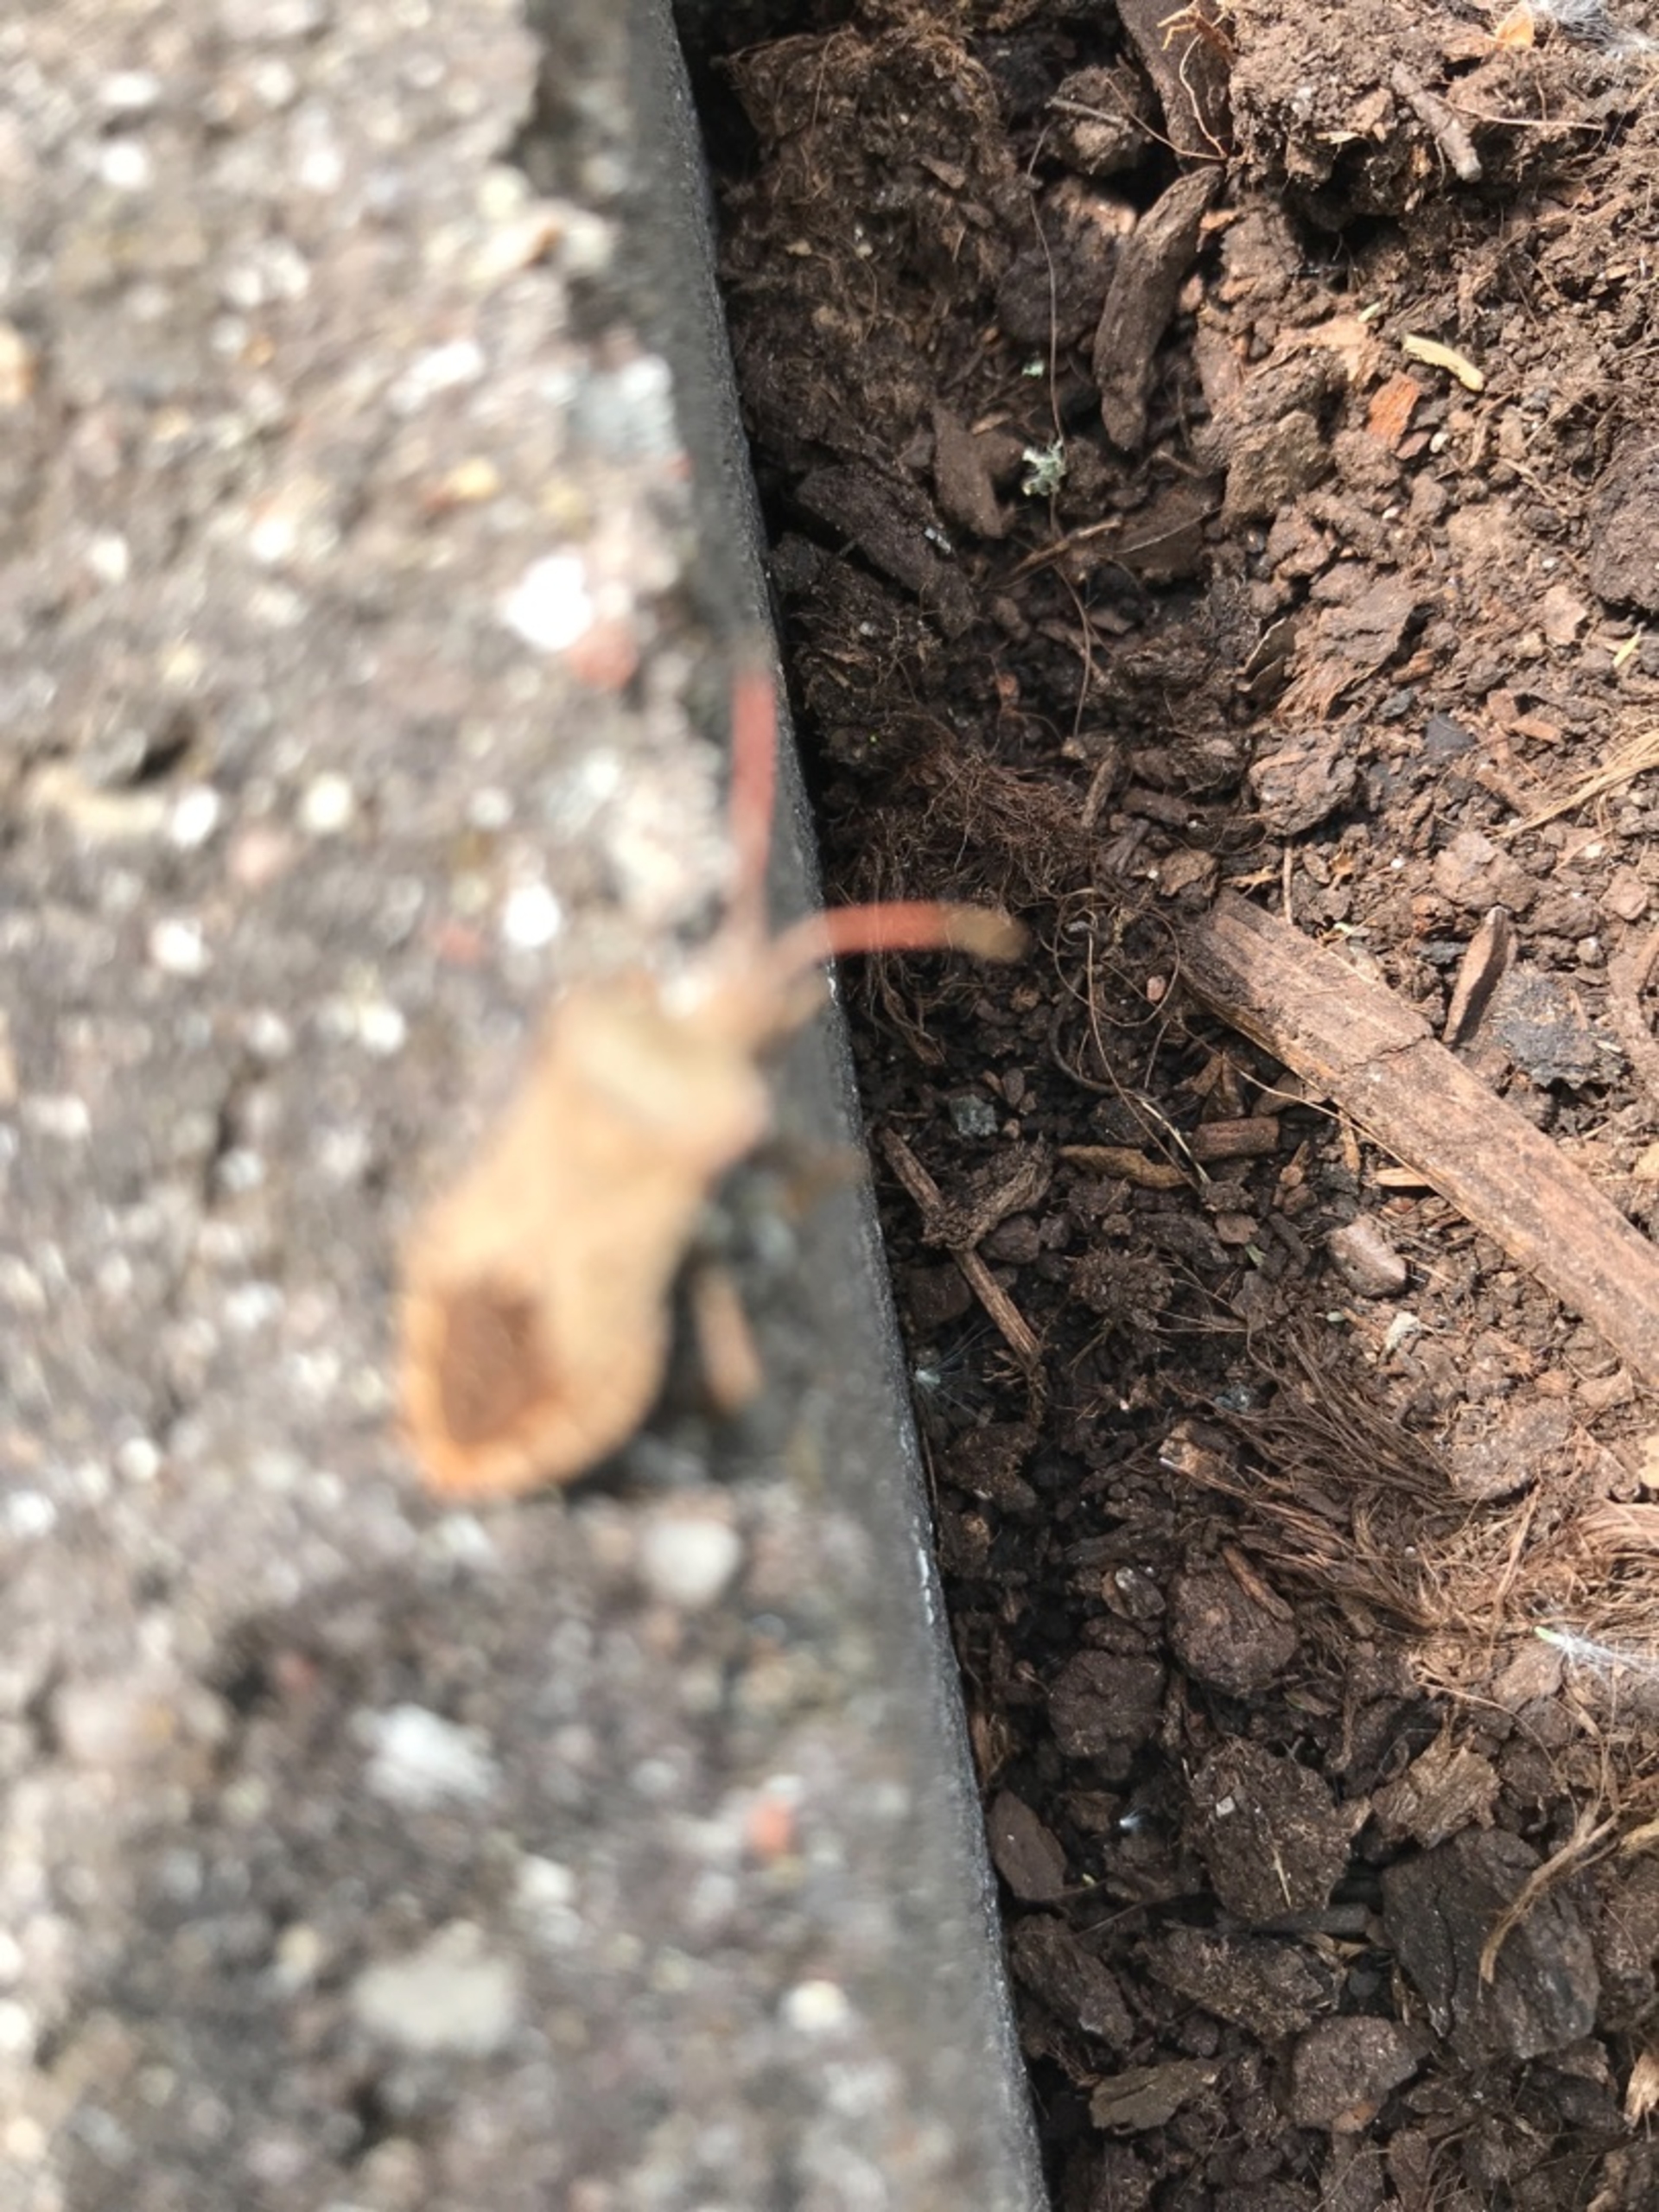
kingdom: Animalia
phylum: Arthropoda
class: Insecta
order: Hemiptera
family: Coreidae
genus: Coreus
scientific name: Coreus marginatus
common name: Skræppetæge
